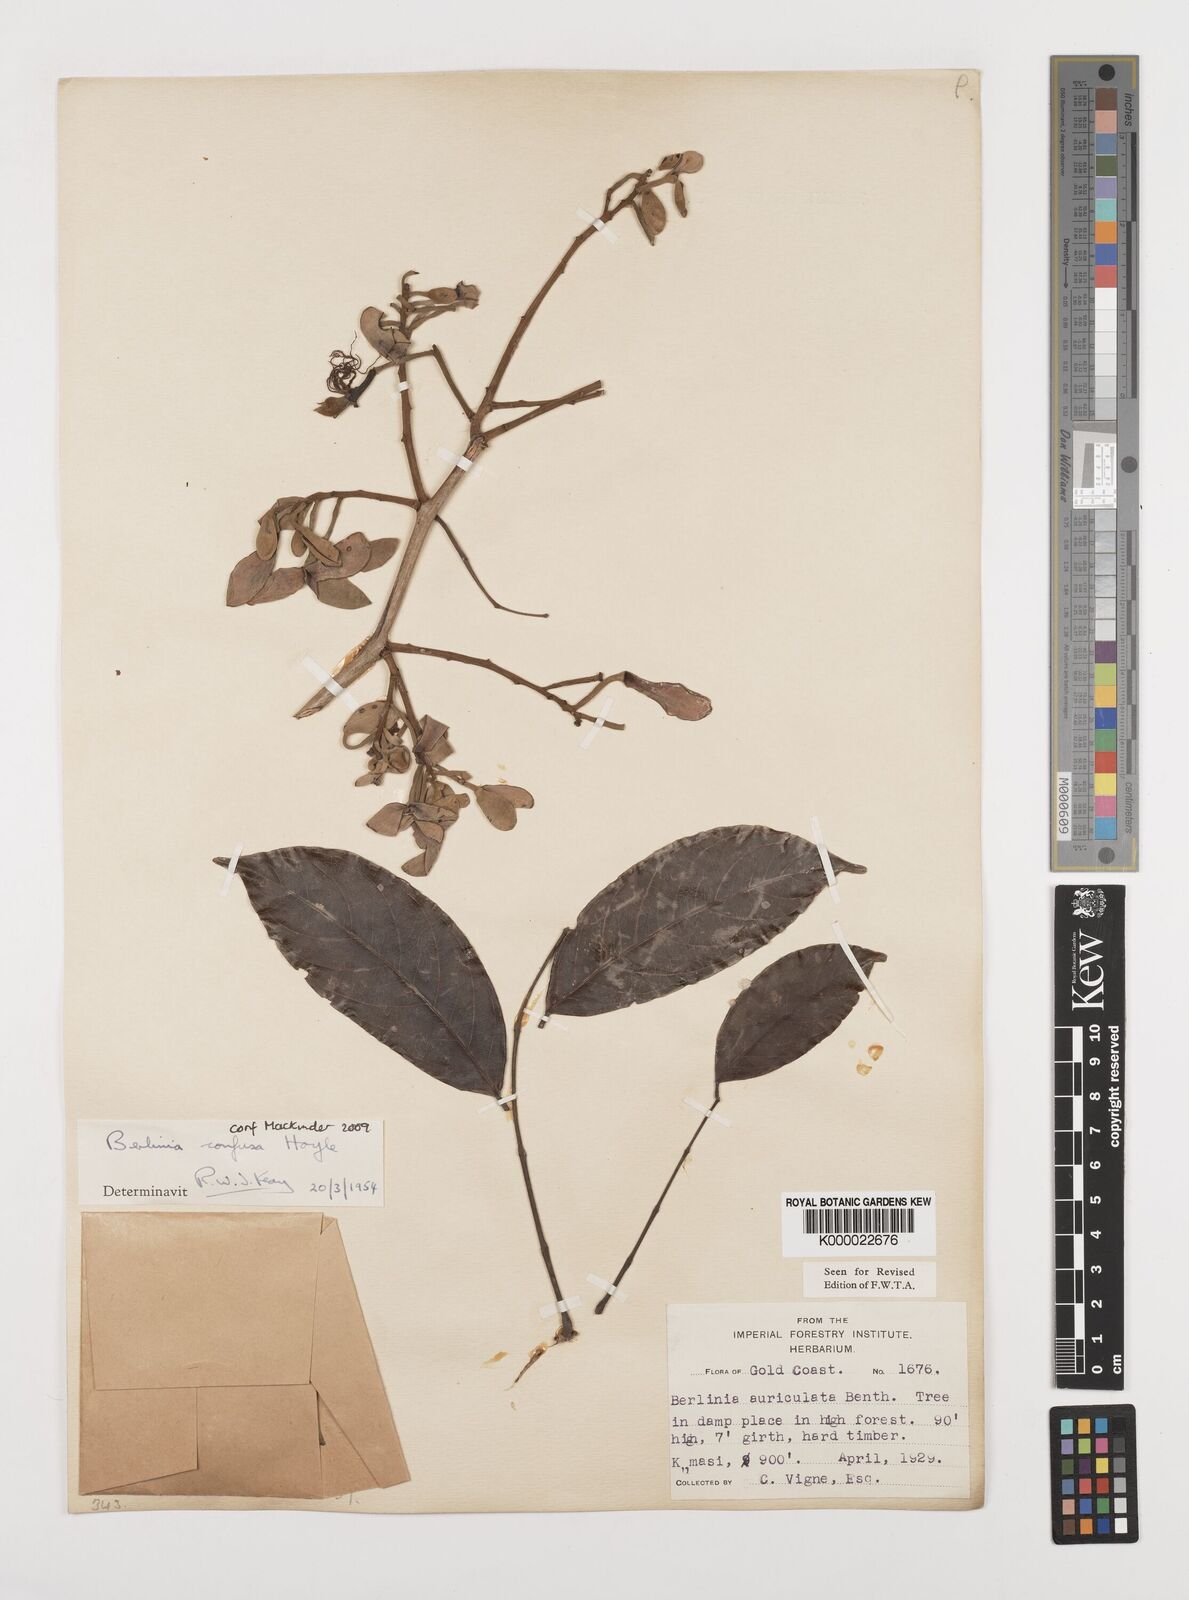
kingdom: Plantae
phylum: Tracheophyta
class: Magnoliopsida
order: Fabales
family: Fabaceae
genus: Berlinia
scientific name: Berlinia confusa
